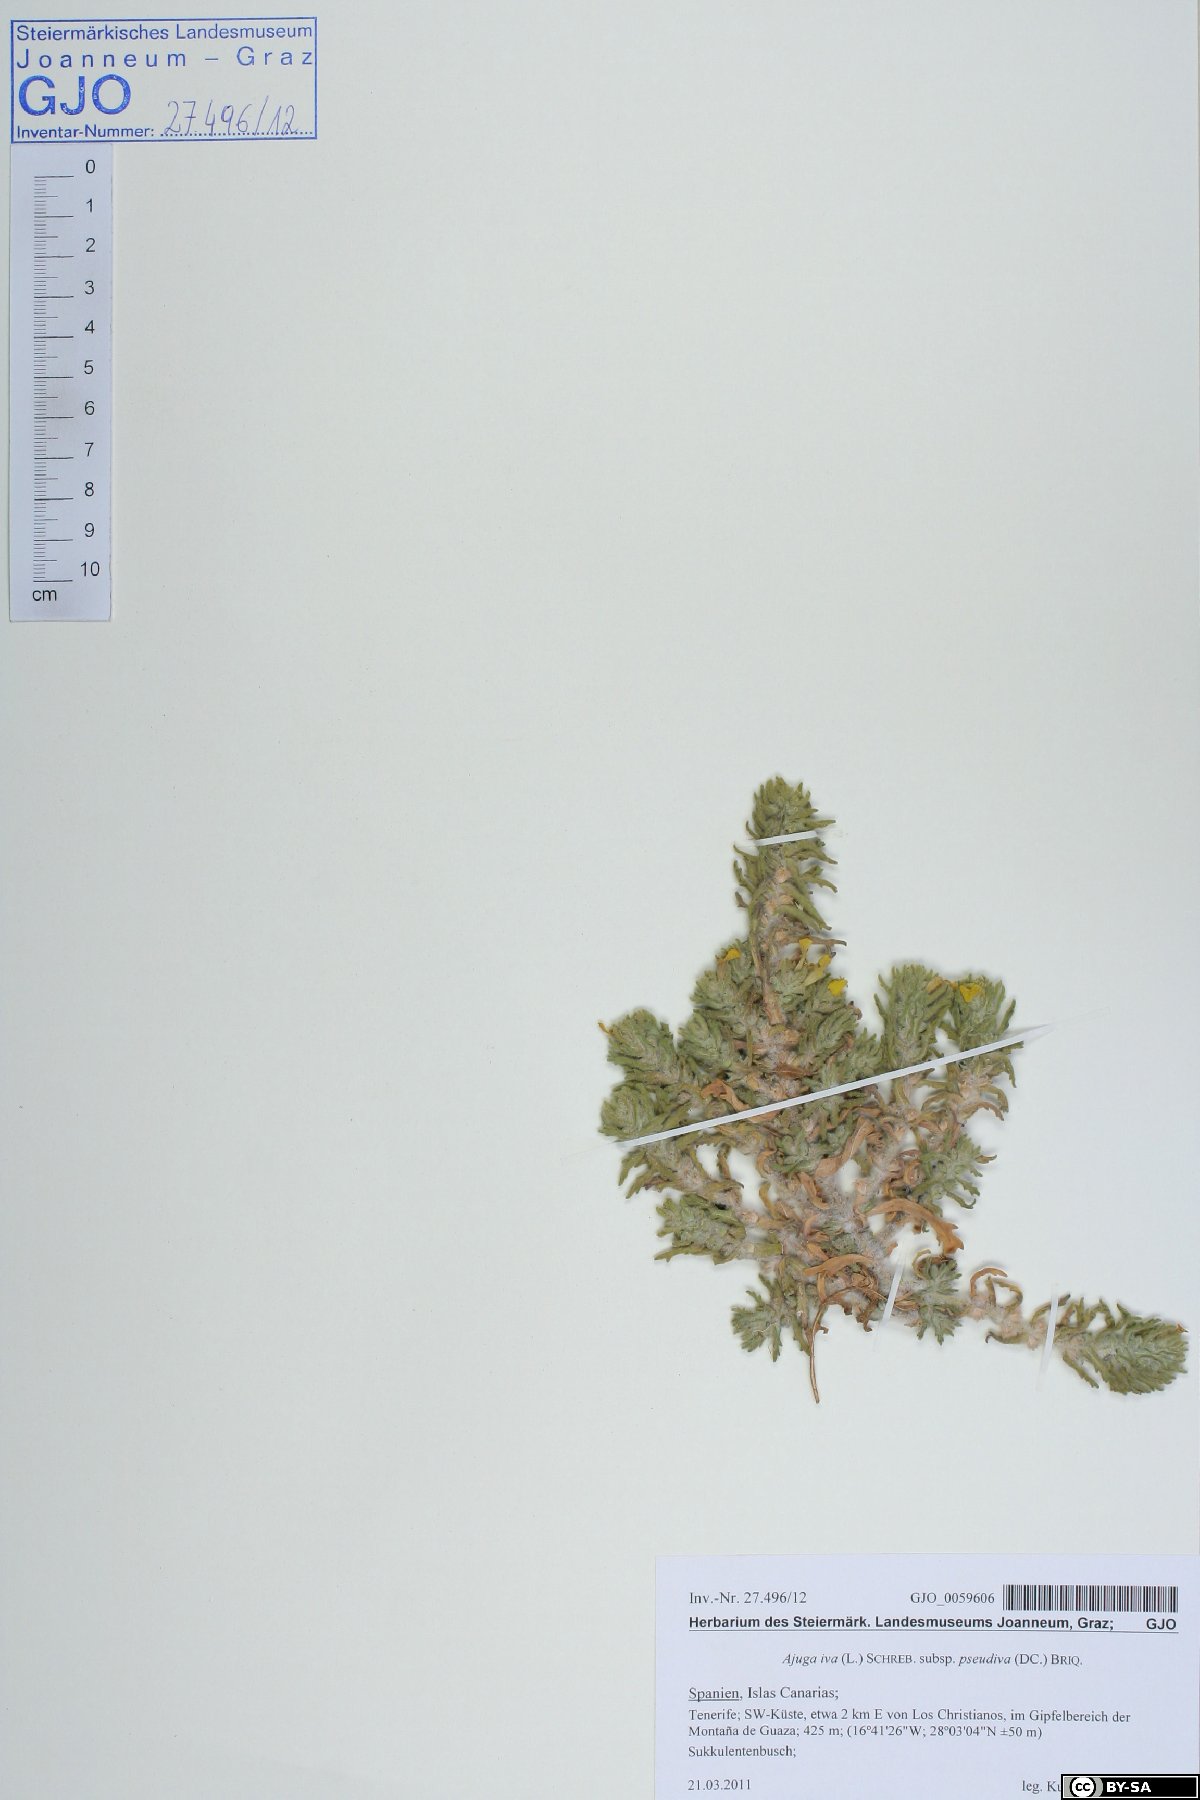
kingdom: Plantae
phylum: Tracheophyta
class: Magnoliopsida
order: Lamiales
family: Lamiaceae
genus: Ajuga
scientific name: Ajuga iva
